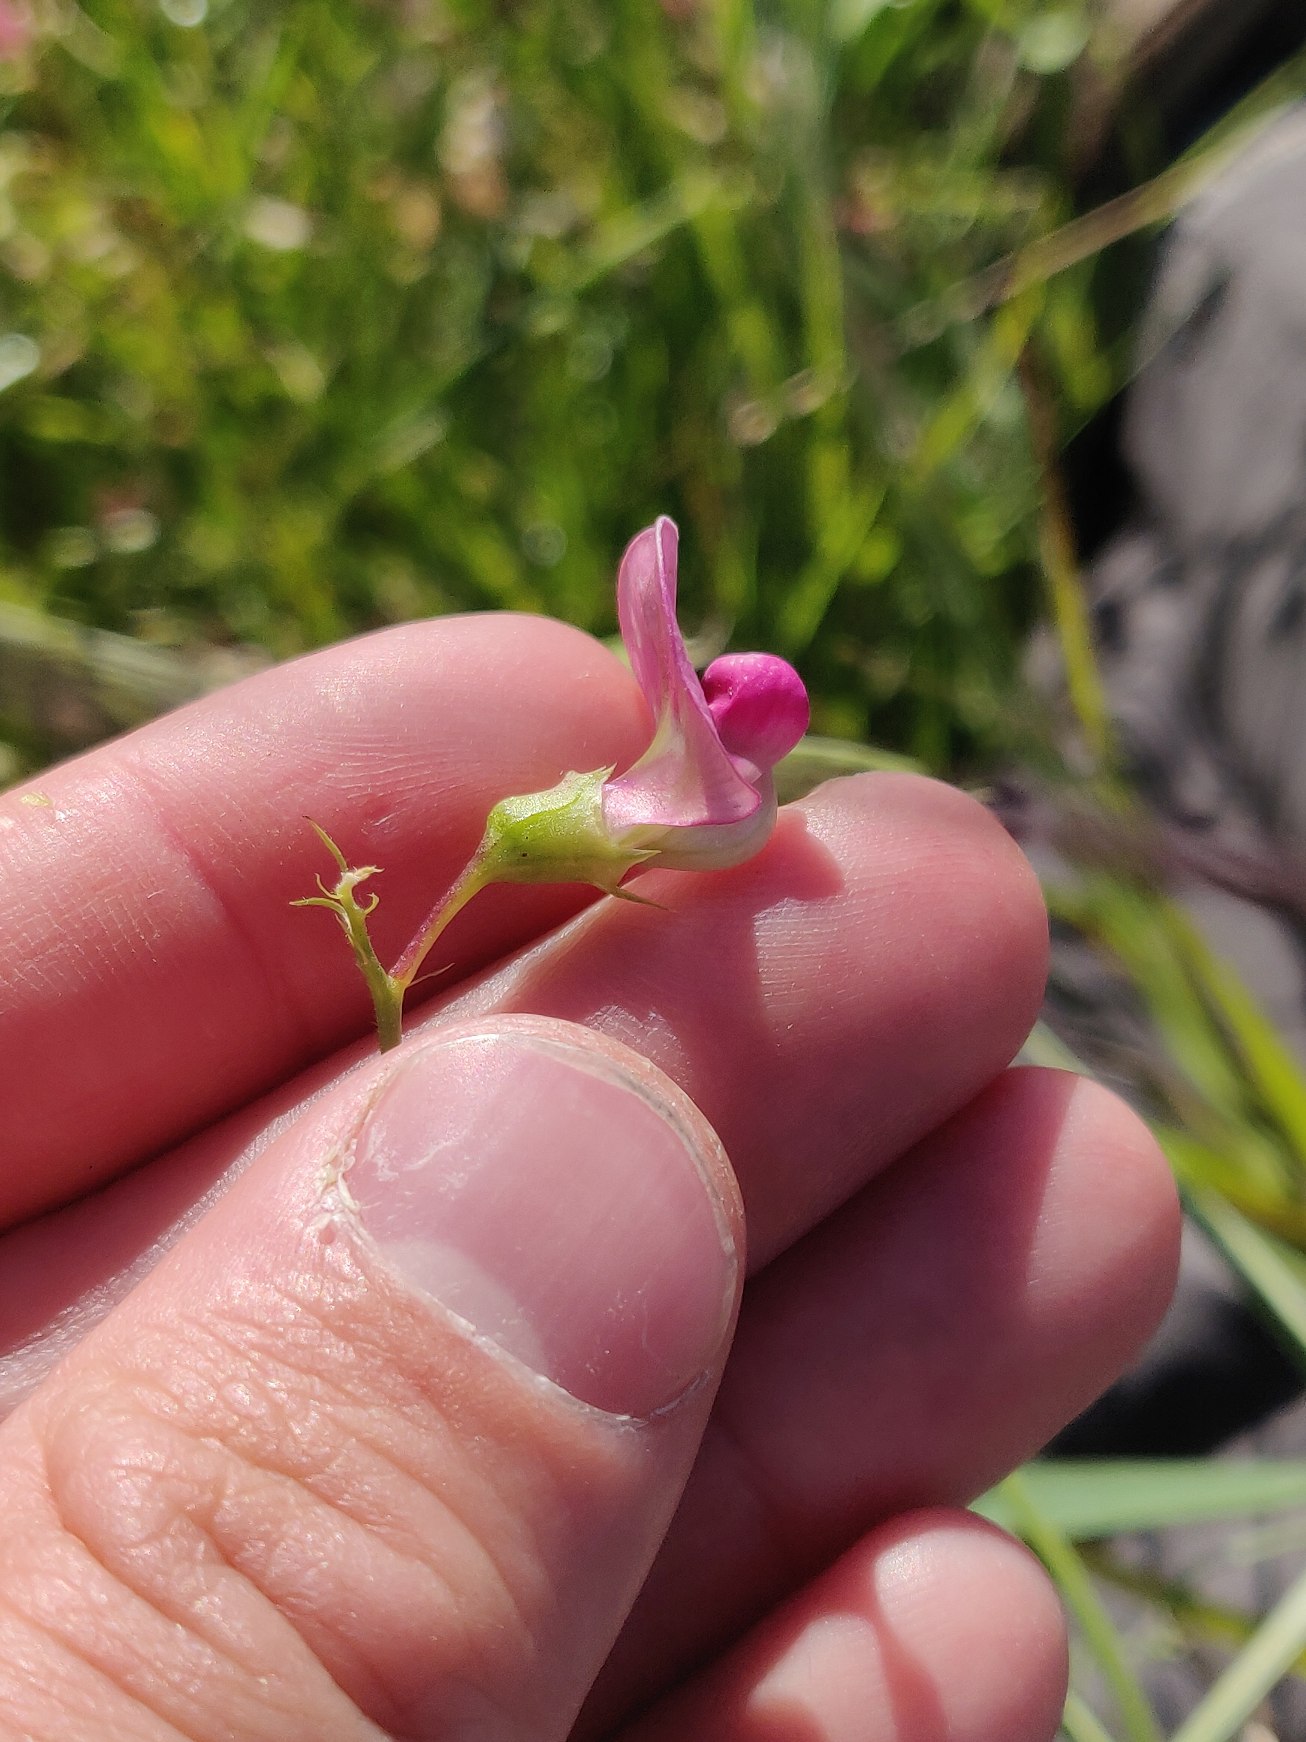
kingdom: Plantae
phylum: Tracheophyta
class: Magnoliopsida
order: Fabales
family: Fabaceae
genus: Lathyrus
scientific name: Lathyrus sylvestris
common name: Skov-fladbælg
